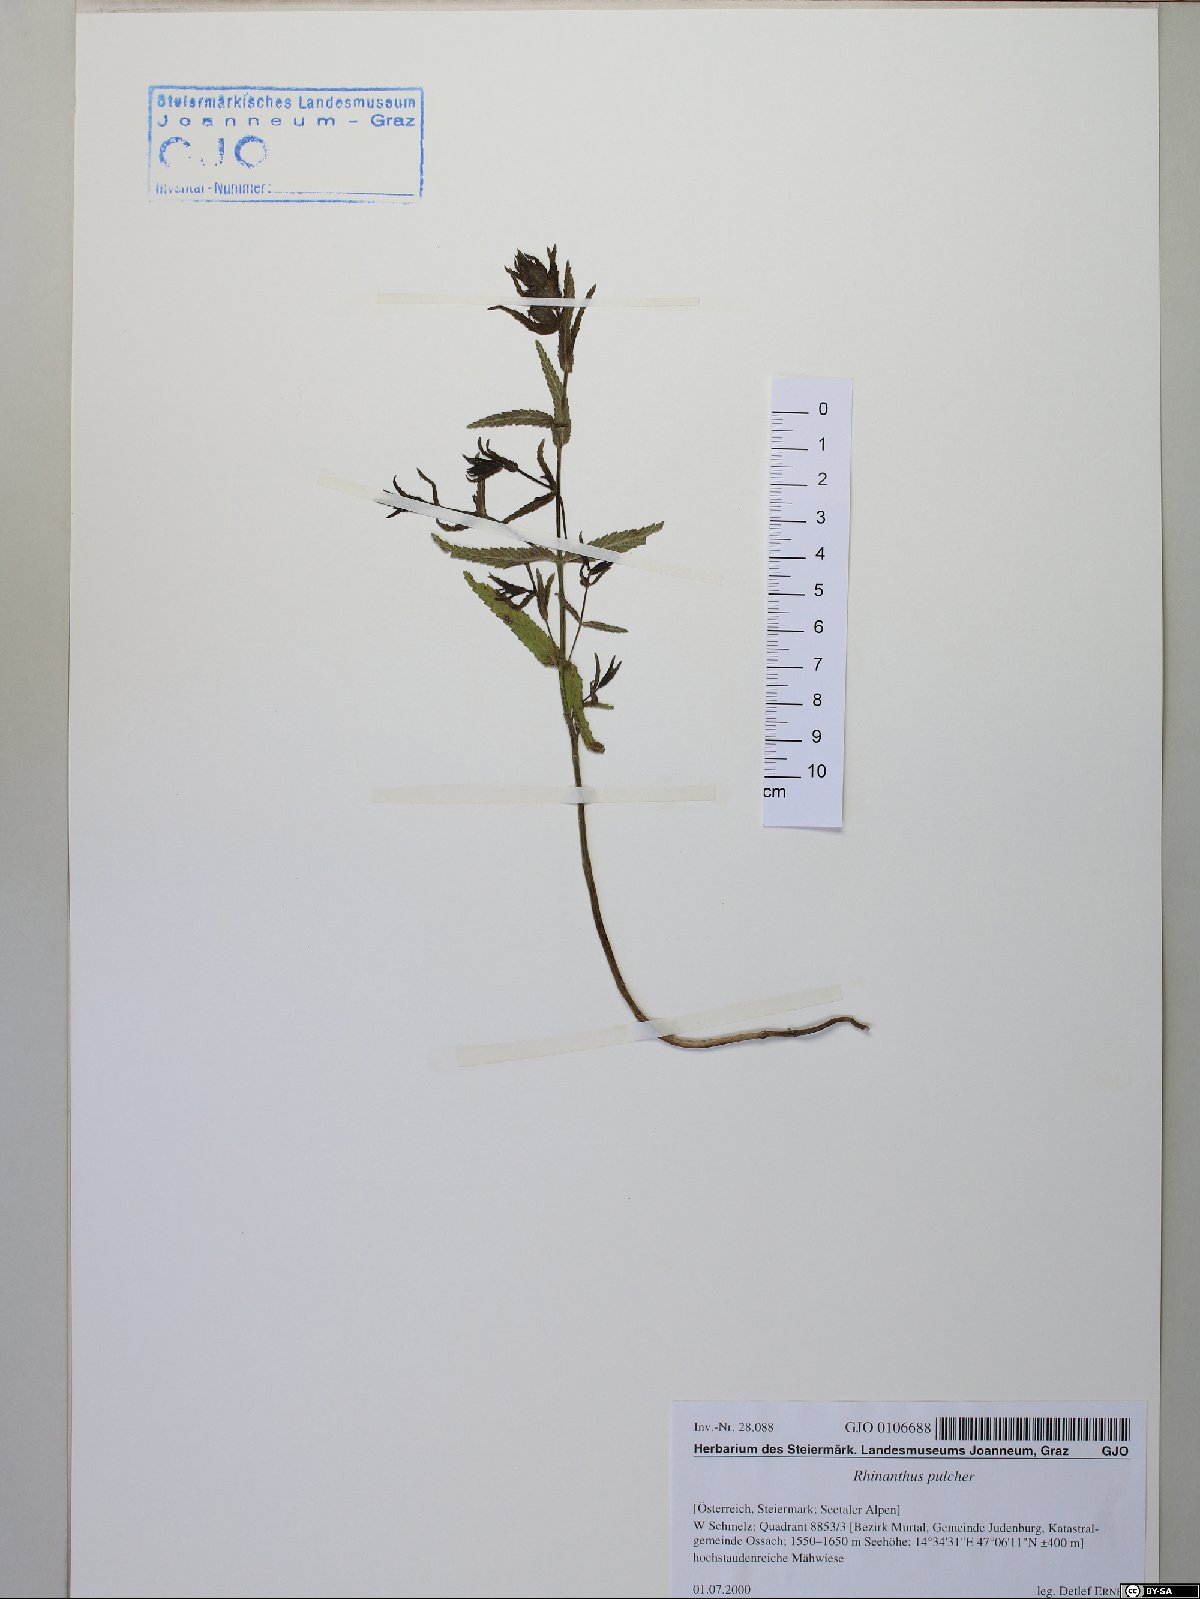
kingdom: Plantae
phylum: Tracheophyta
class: Magnoliopsida
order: Lamiales
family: Orobanchaceae
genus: Rhinanthus
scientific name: Rhinanthus riphaeus
